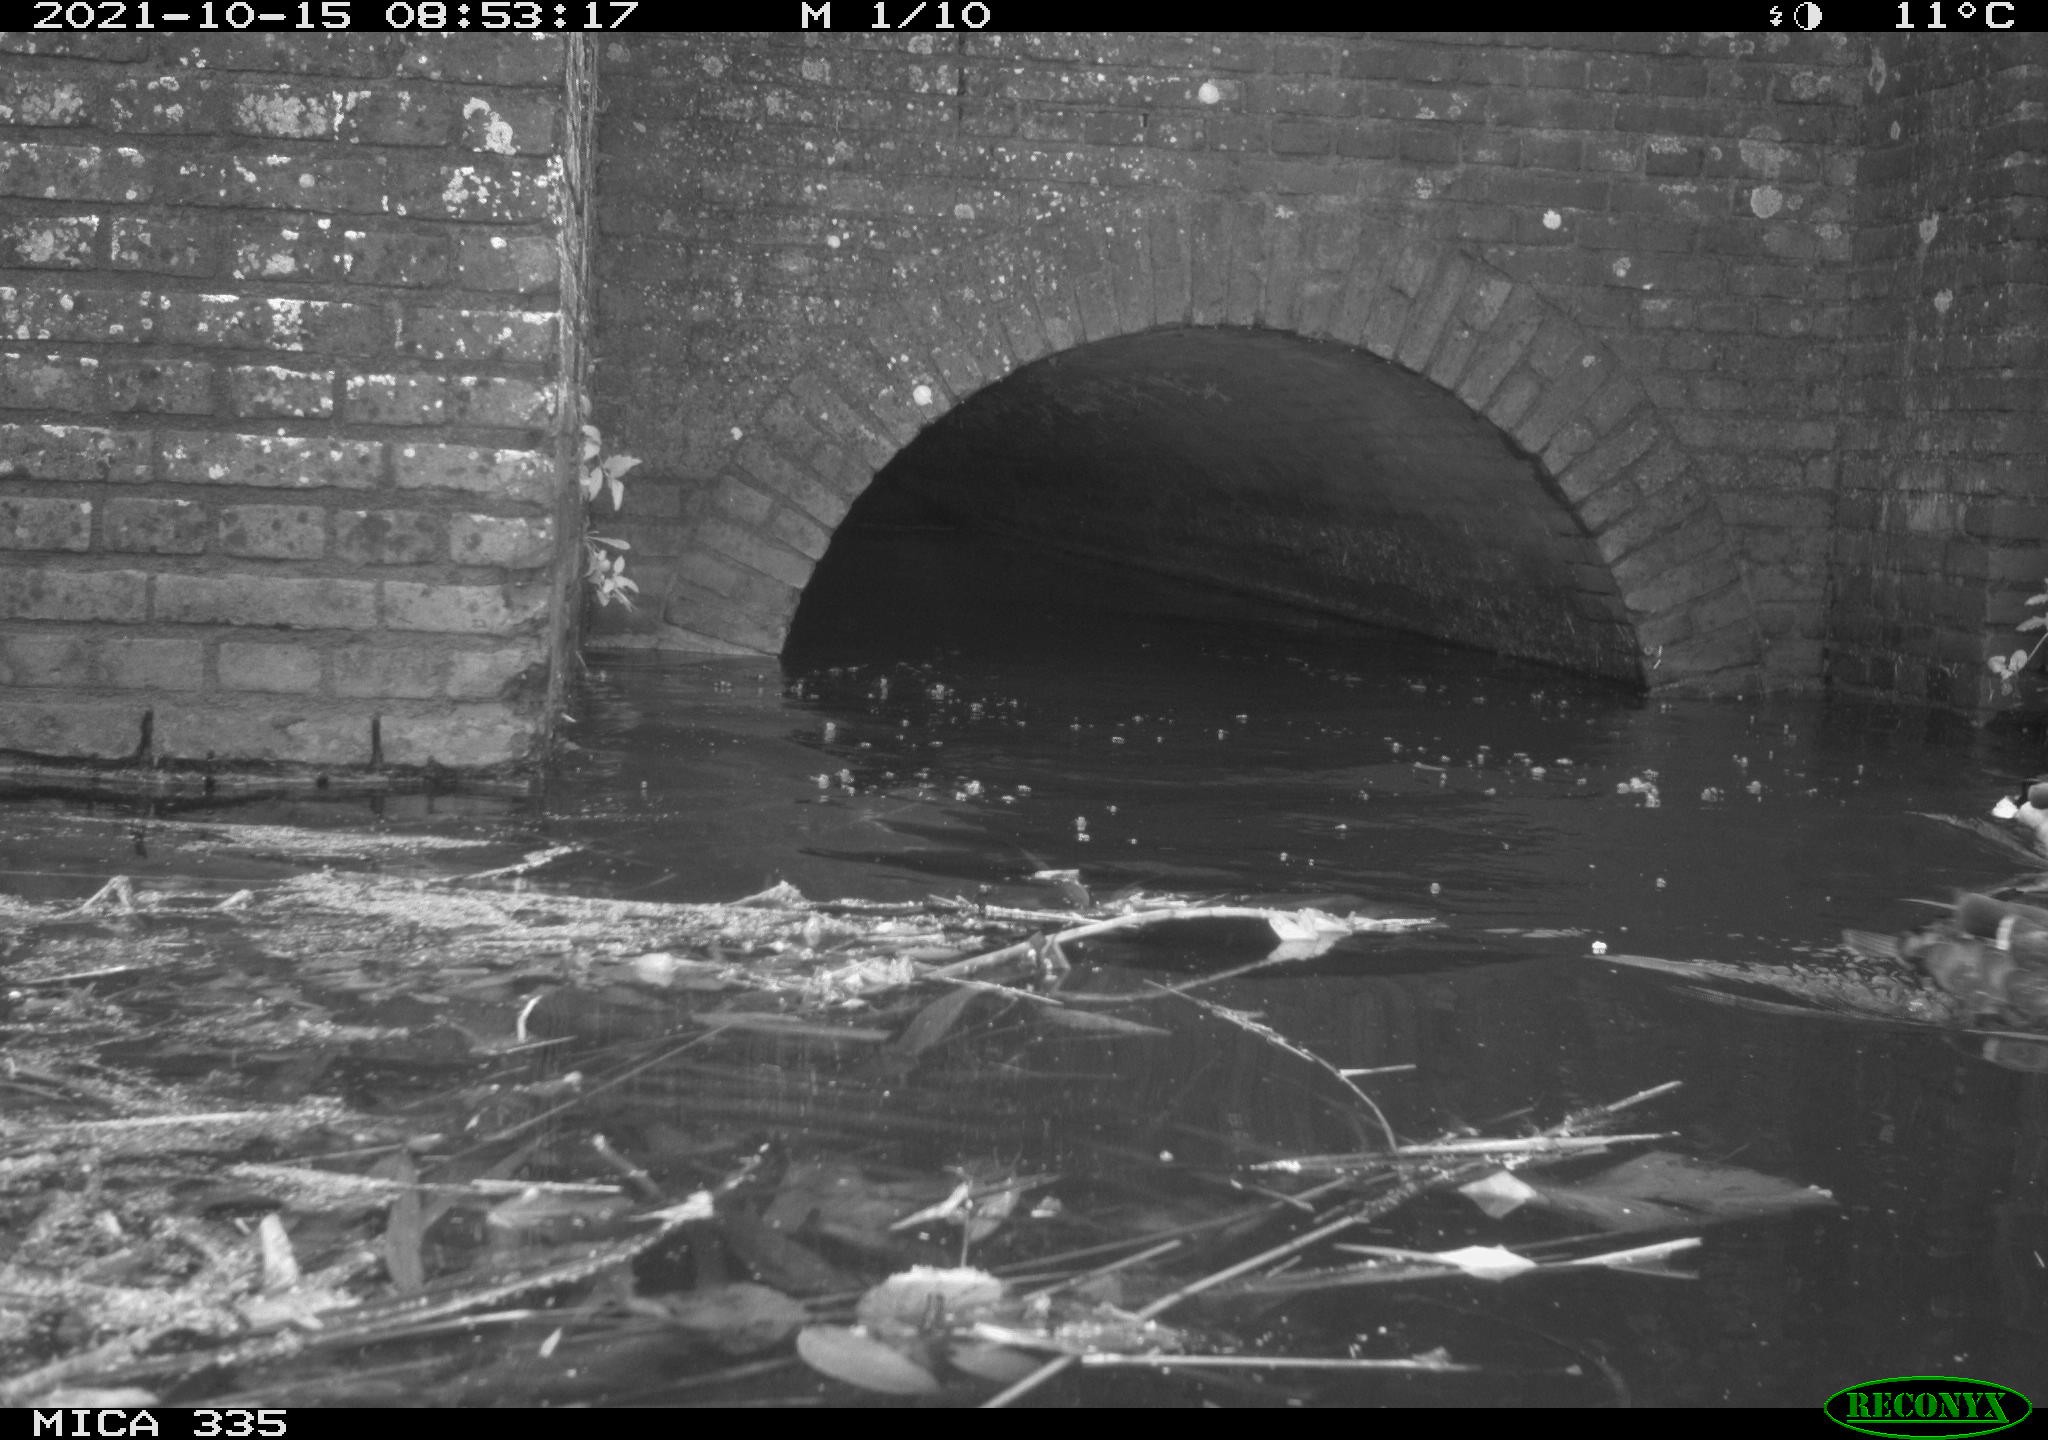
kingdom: Animalia
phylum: Chordata
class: Aves
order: Anseriformes
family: Anatidae
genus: Anas
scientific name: Anas platyrhynchos
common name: Mallard
